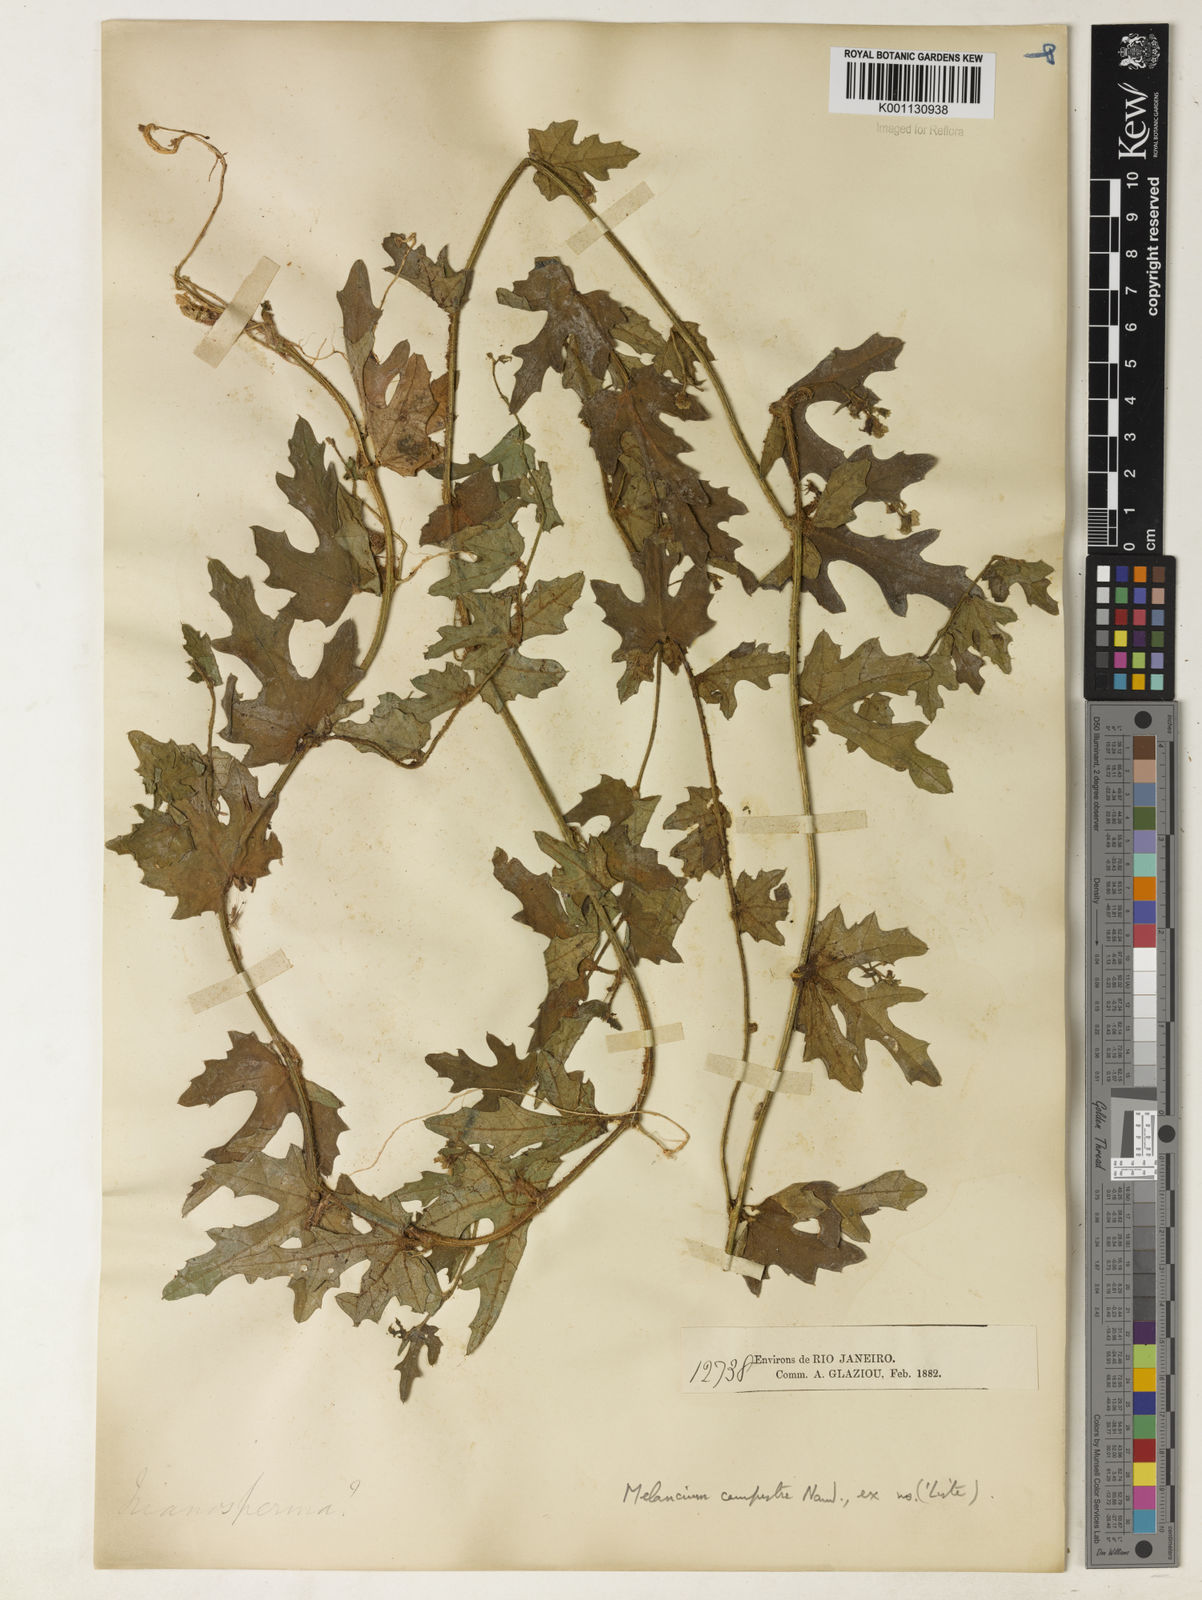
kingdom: Plantae
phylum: Tracheophyta
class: Magnoliopsida
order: Cucurbitales
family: Cucurbitaceae
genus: Melothria
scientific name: Melothria campestris
